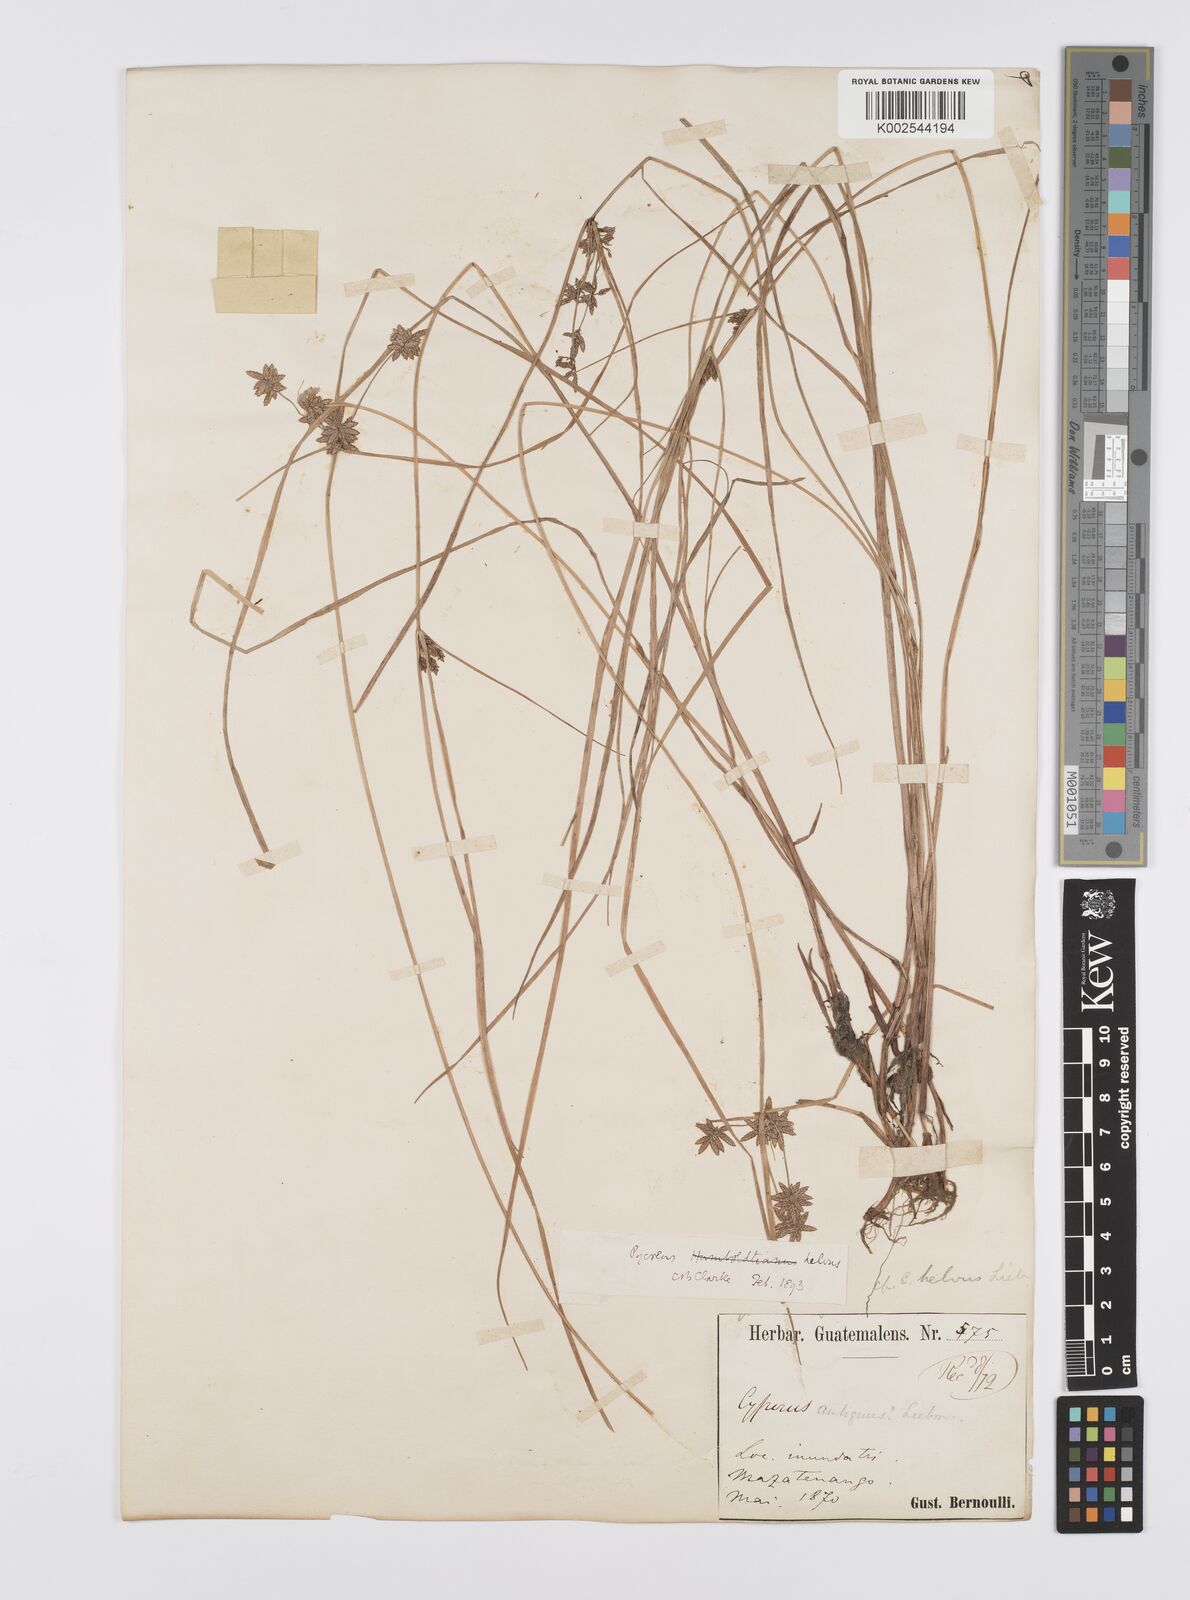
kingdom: Plantae
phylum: Tracheophyta
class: Liliopsida
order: Poales
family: Cyperaceae
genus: Cyperus
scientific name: Cyperus
